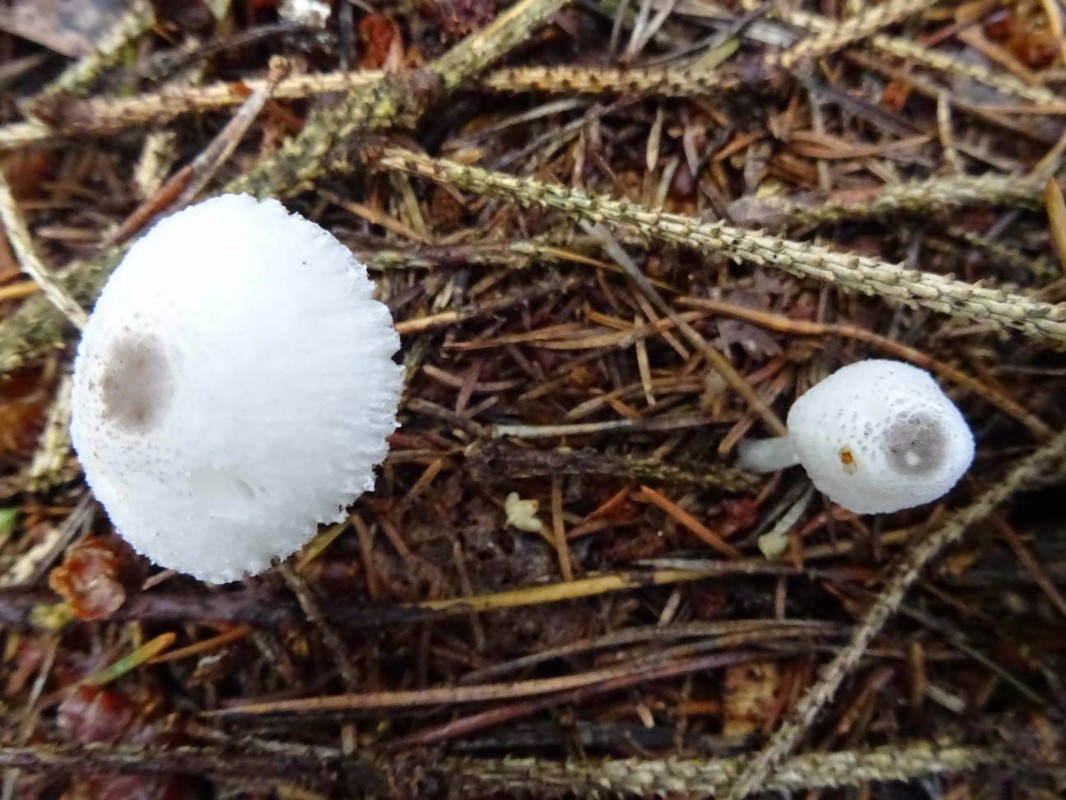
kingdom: Fungi
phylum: Basidiomycota
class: Agaricomycetes
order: Agaricales
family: Agaricaceae
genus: Leucocoprinus
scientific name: Leucocoprinus brebissonii
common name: gråsort silkehat
